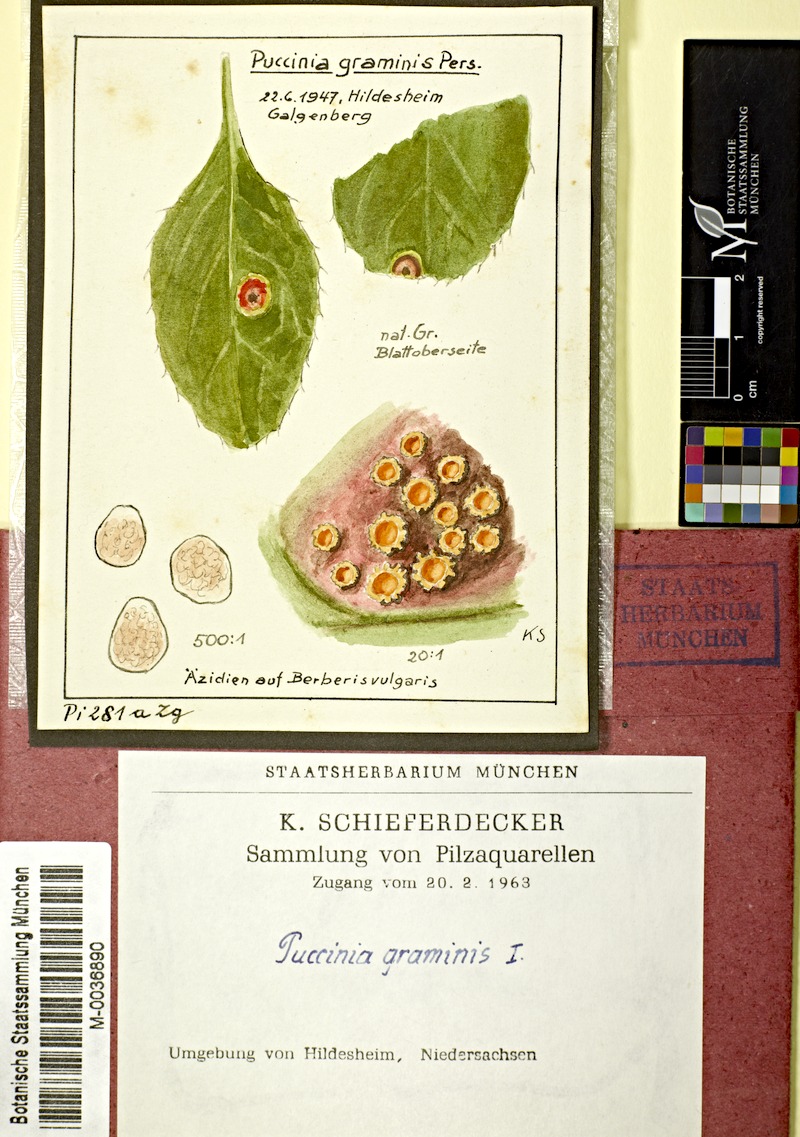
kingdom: Fungi
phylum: Basidiomycota
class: Pucciniomycetes
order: Pucciniales
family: Pucciniaceae
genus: Puccinia
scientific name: Puccinia graminis
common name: Black stem rust
